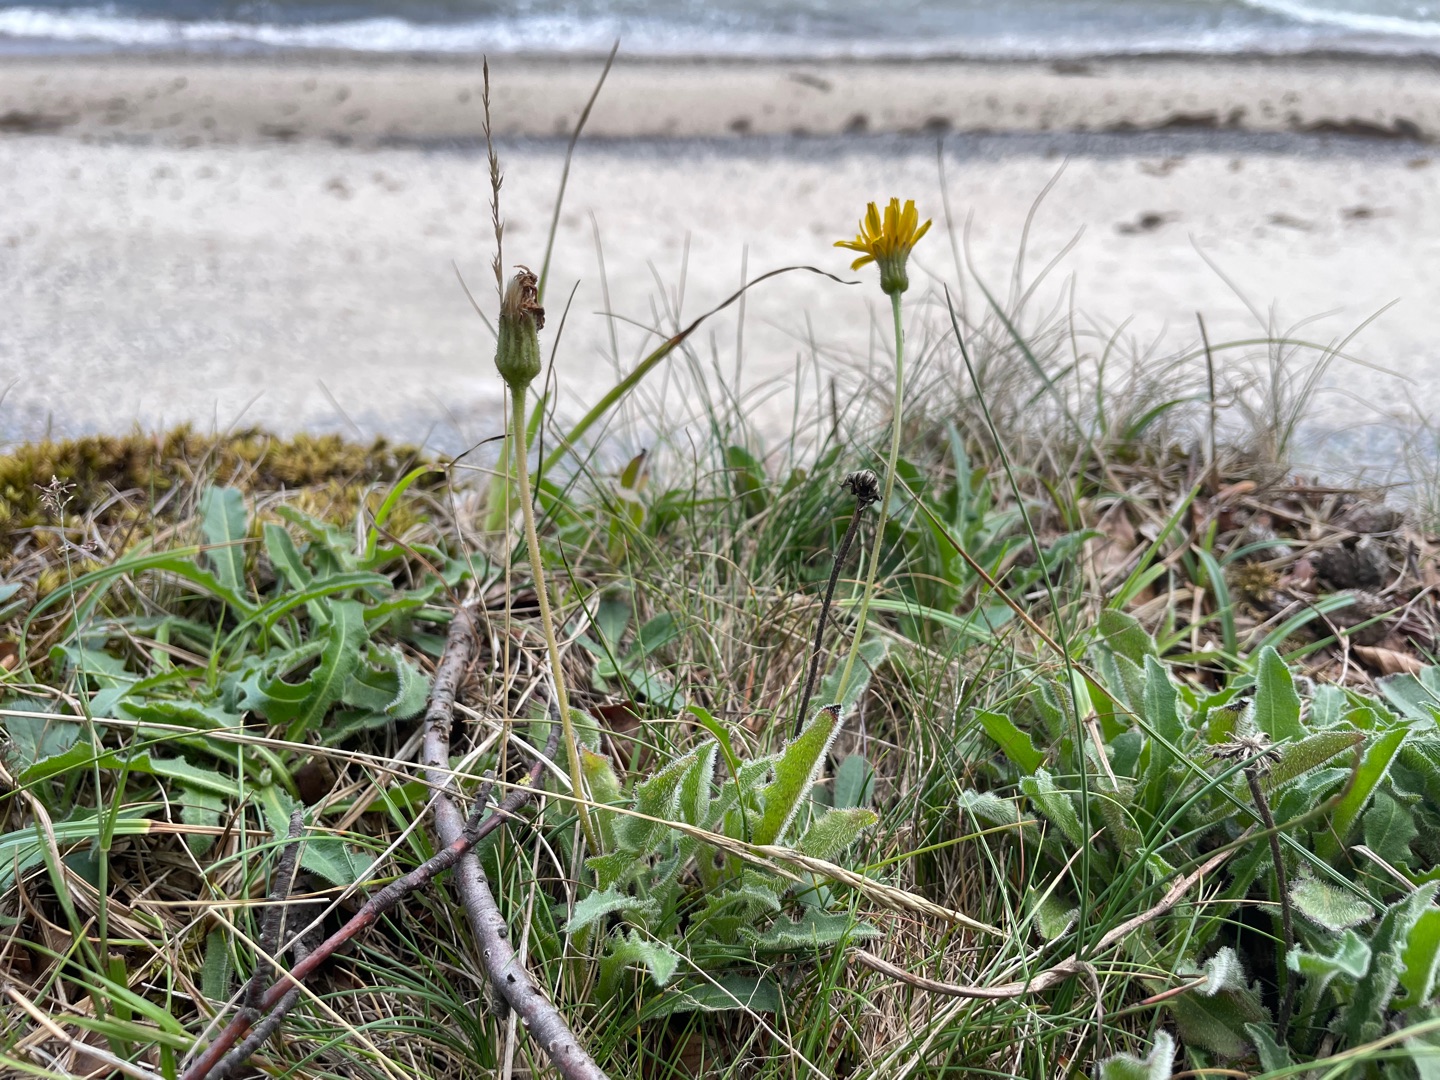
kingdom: Plantae
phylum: Tracheophyta
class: Magnoliopsida
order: Asterales
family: Asteraceae
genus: Leontodon
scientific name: Leontodon hispidus
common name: Stivhåret borst
